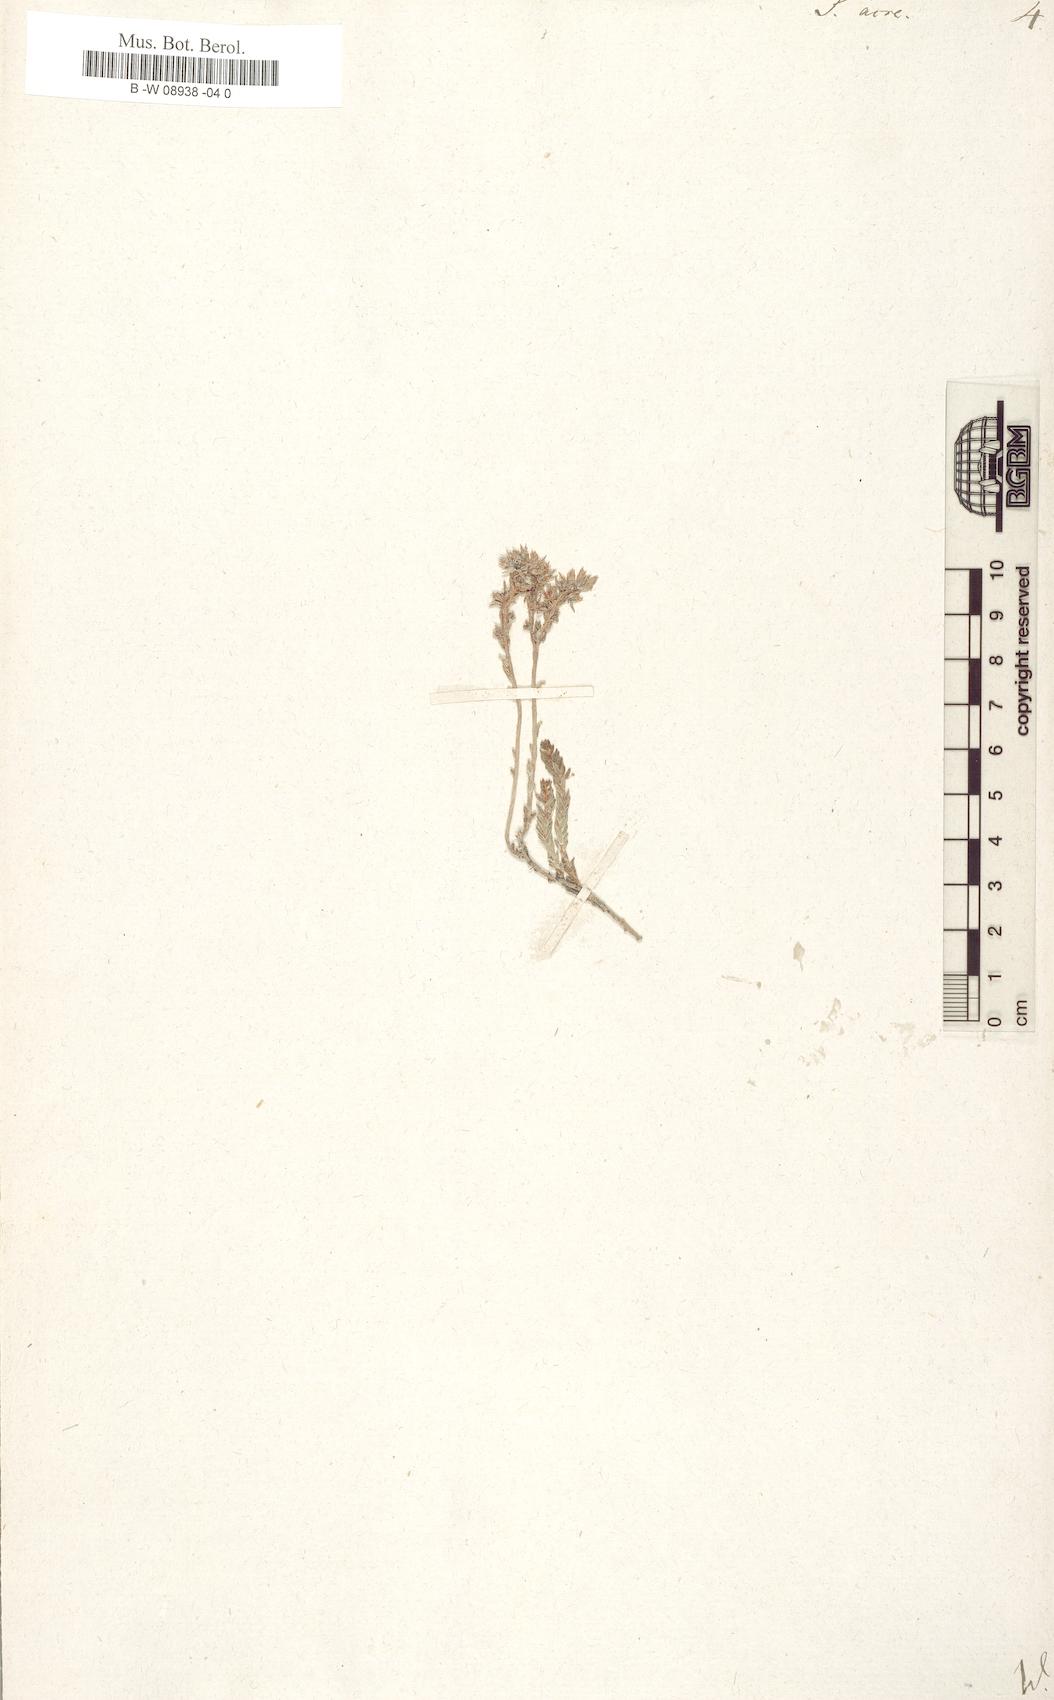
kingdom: Plantae
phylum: Tracheophyta
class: Magnoliopsida
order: Saxifragales
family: Crassulaceae
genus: Sedum
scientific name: Sedum acre
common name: Biting stonecrop
